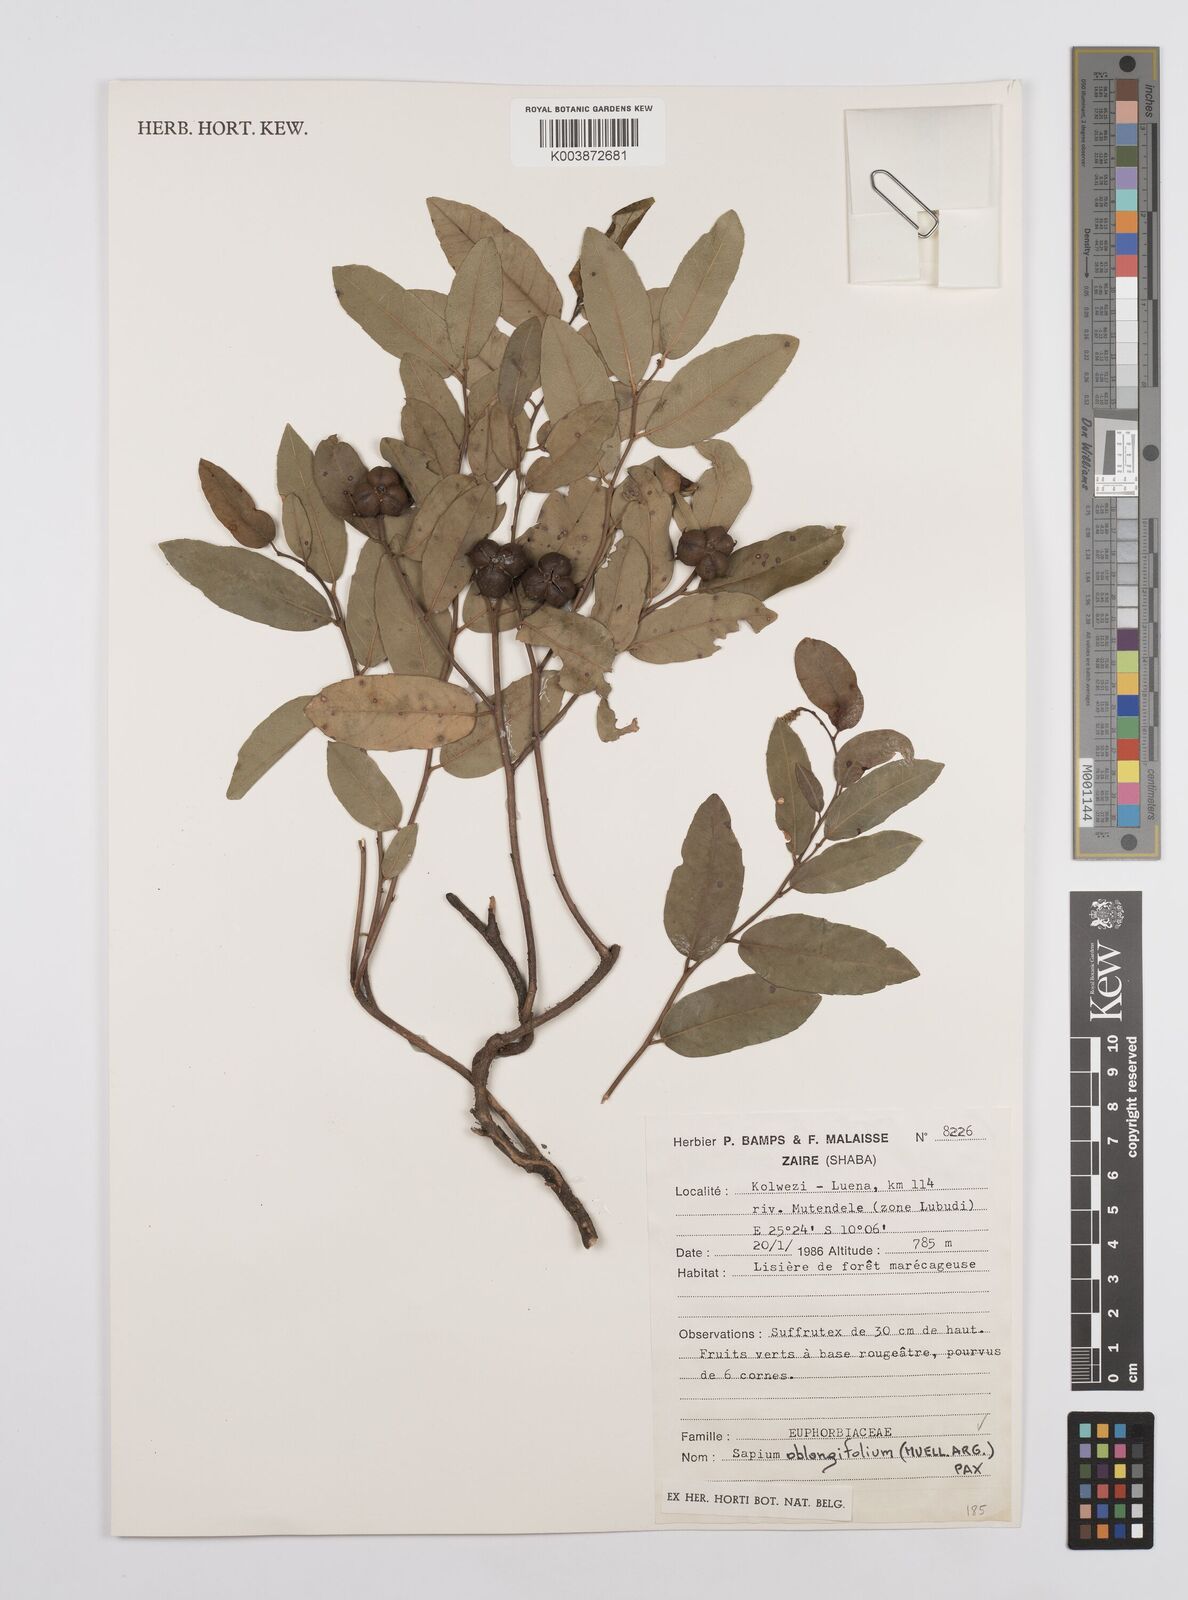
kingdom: Plantae
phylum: Tracheophyta
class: Magnoliopsida
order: Malpighiales
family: Euphorbiaceae
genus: Sclerocroton
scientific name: Sclerocroton oblongifolius
